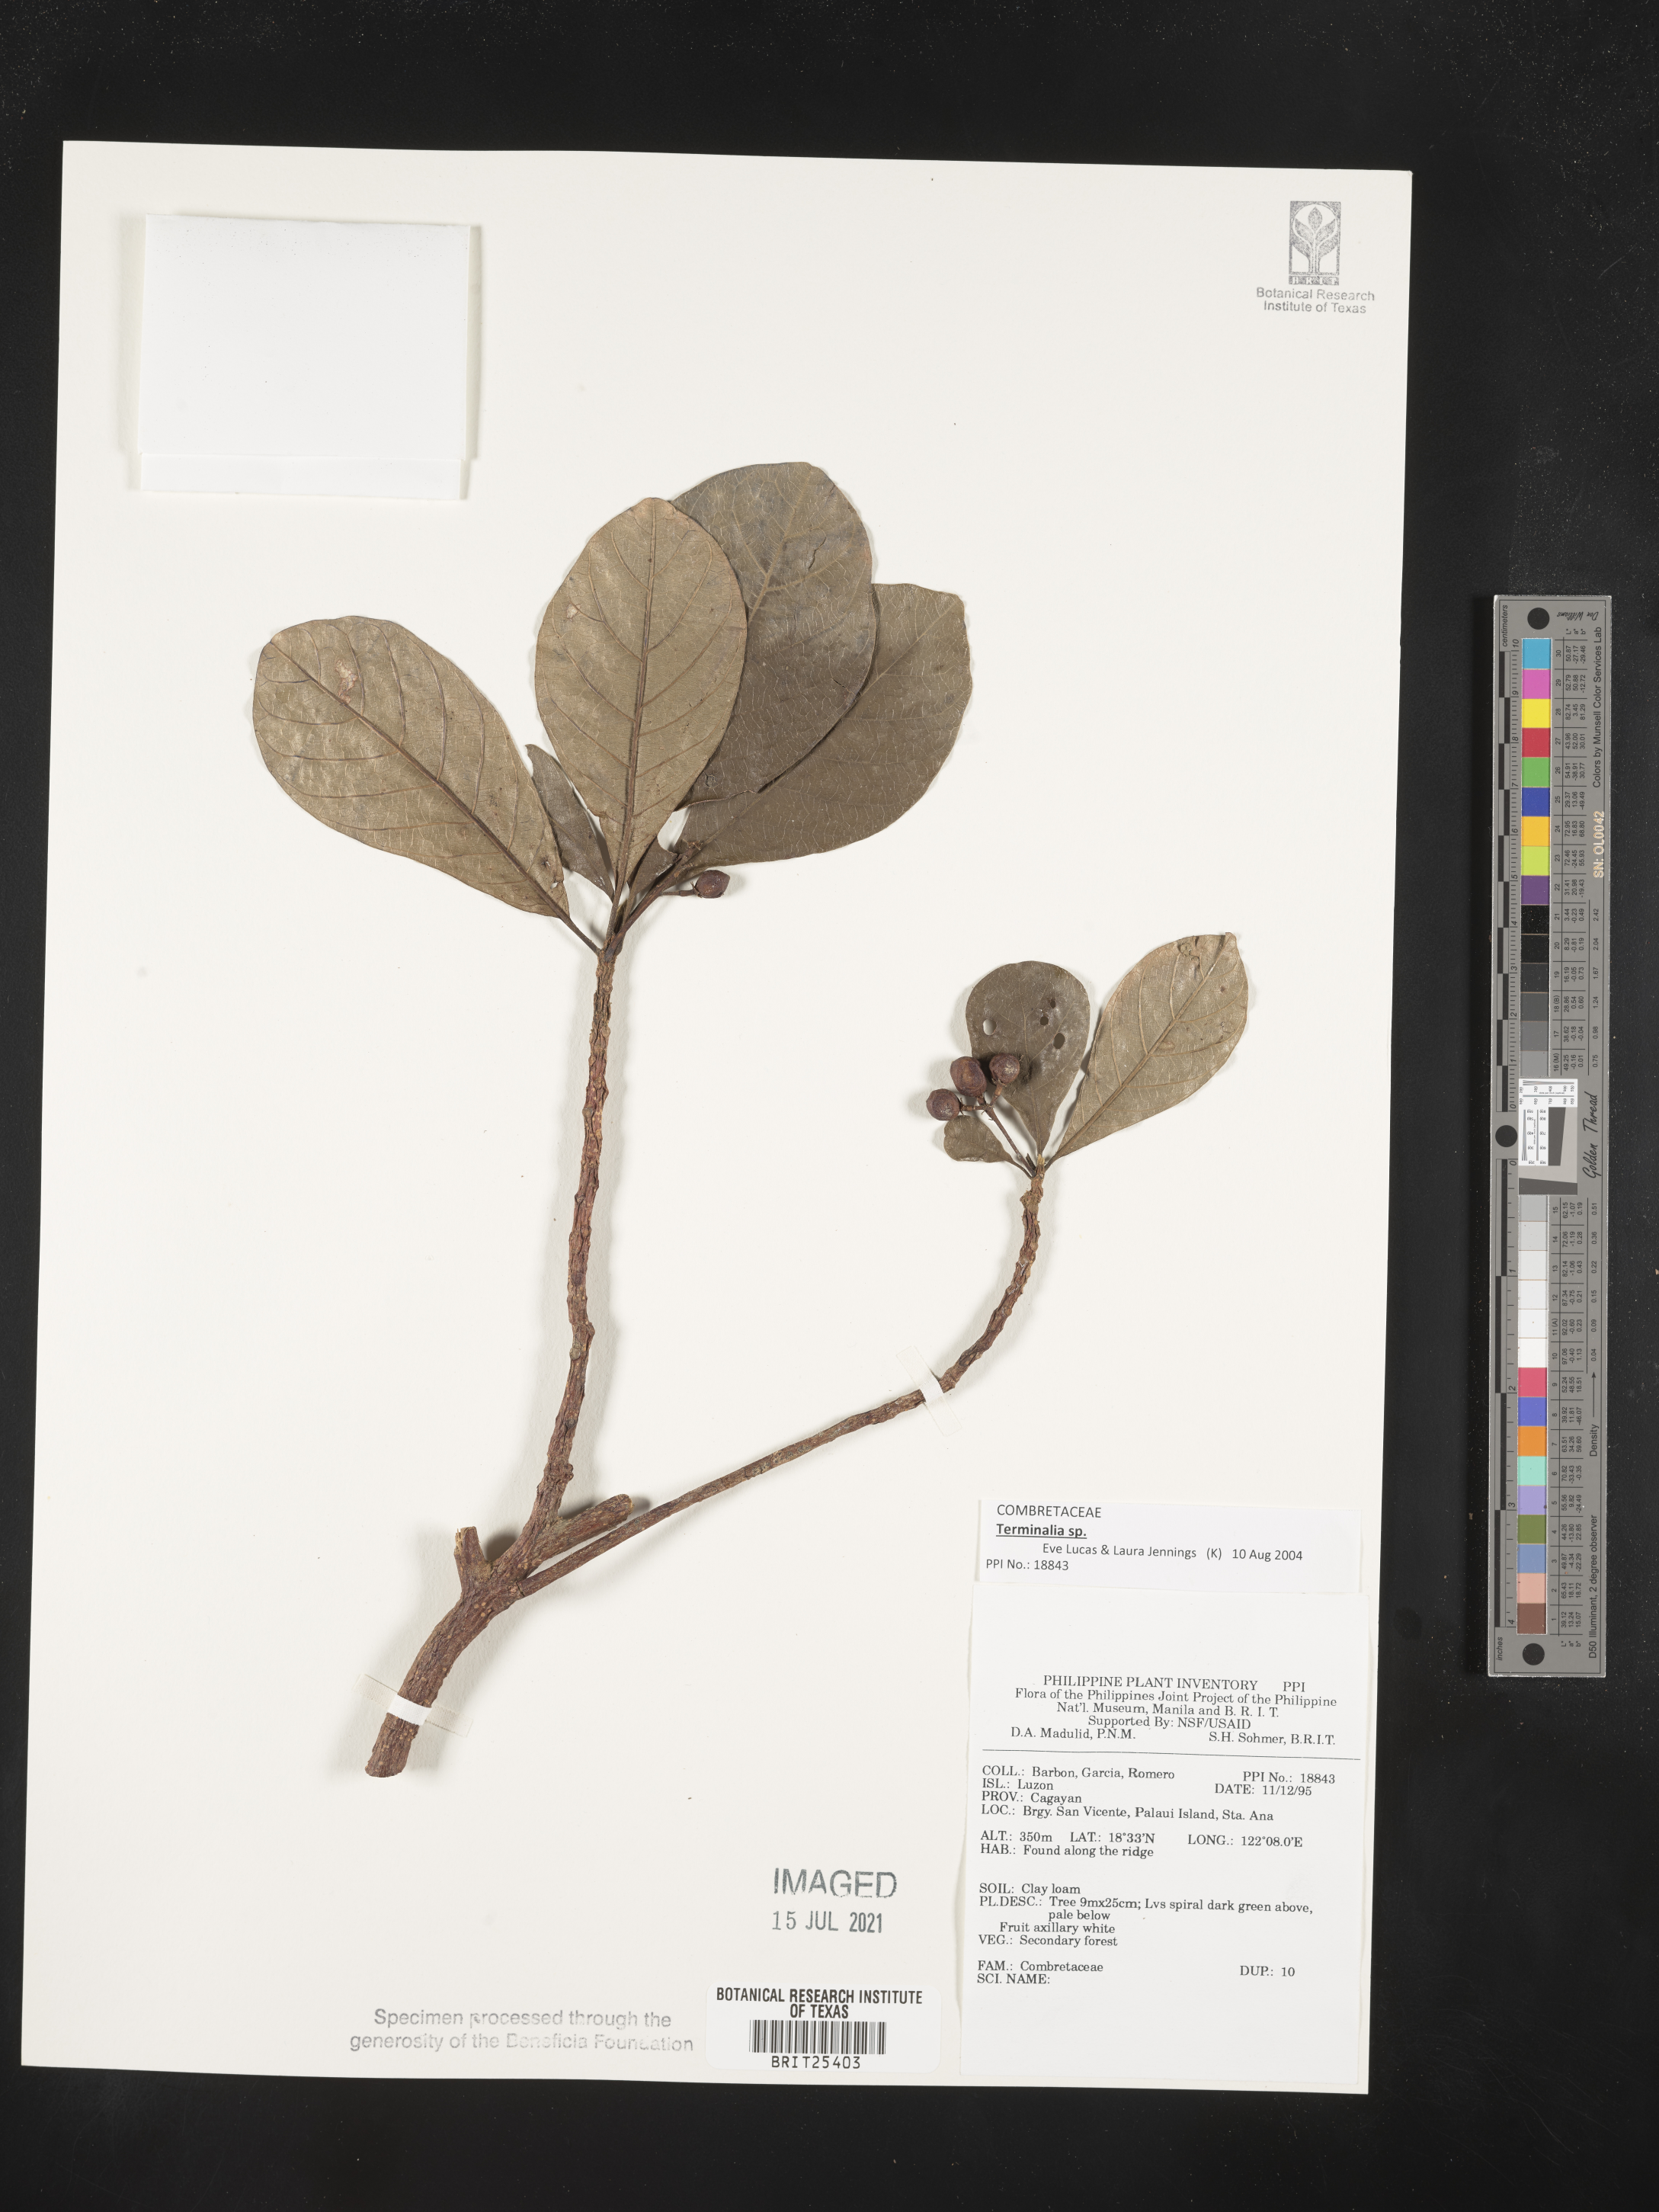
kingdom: Plantae
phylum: Tracheophyta
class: Magnoliopsida
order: Myrtales
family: Combretaceae
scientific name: Combretaceae
